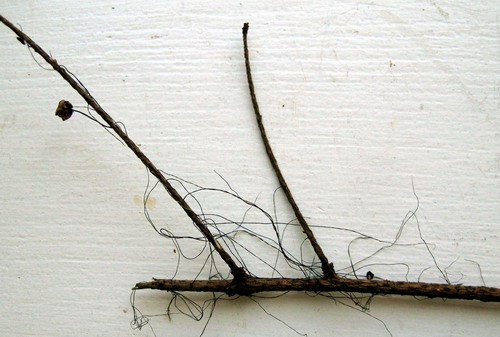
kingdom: Fungi
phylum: Basidiomycota
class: Agaricomycetes
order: Agaricales
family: Omphalotaceae
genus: Gymnopus
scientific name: Gymnopus androsaceus
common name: trådstokket fladhat
